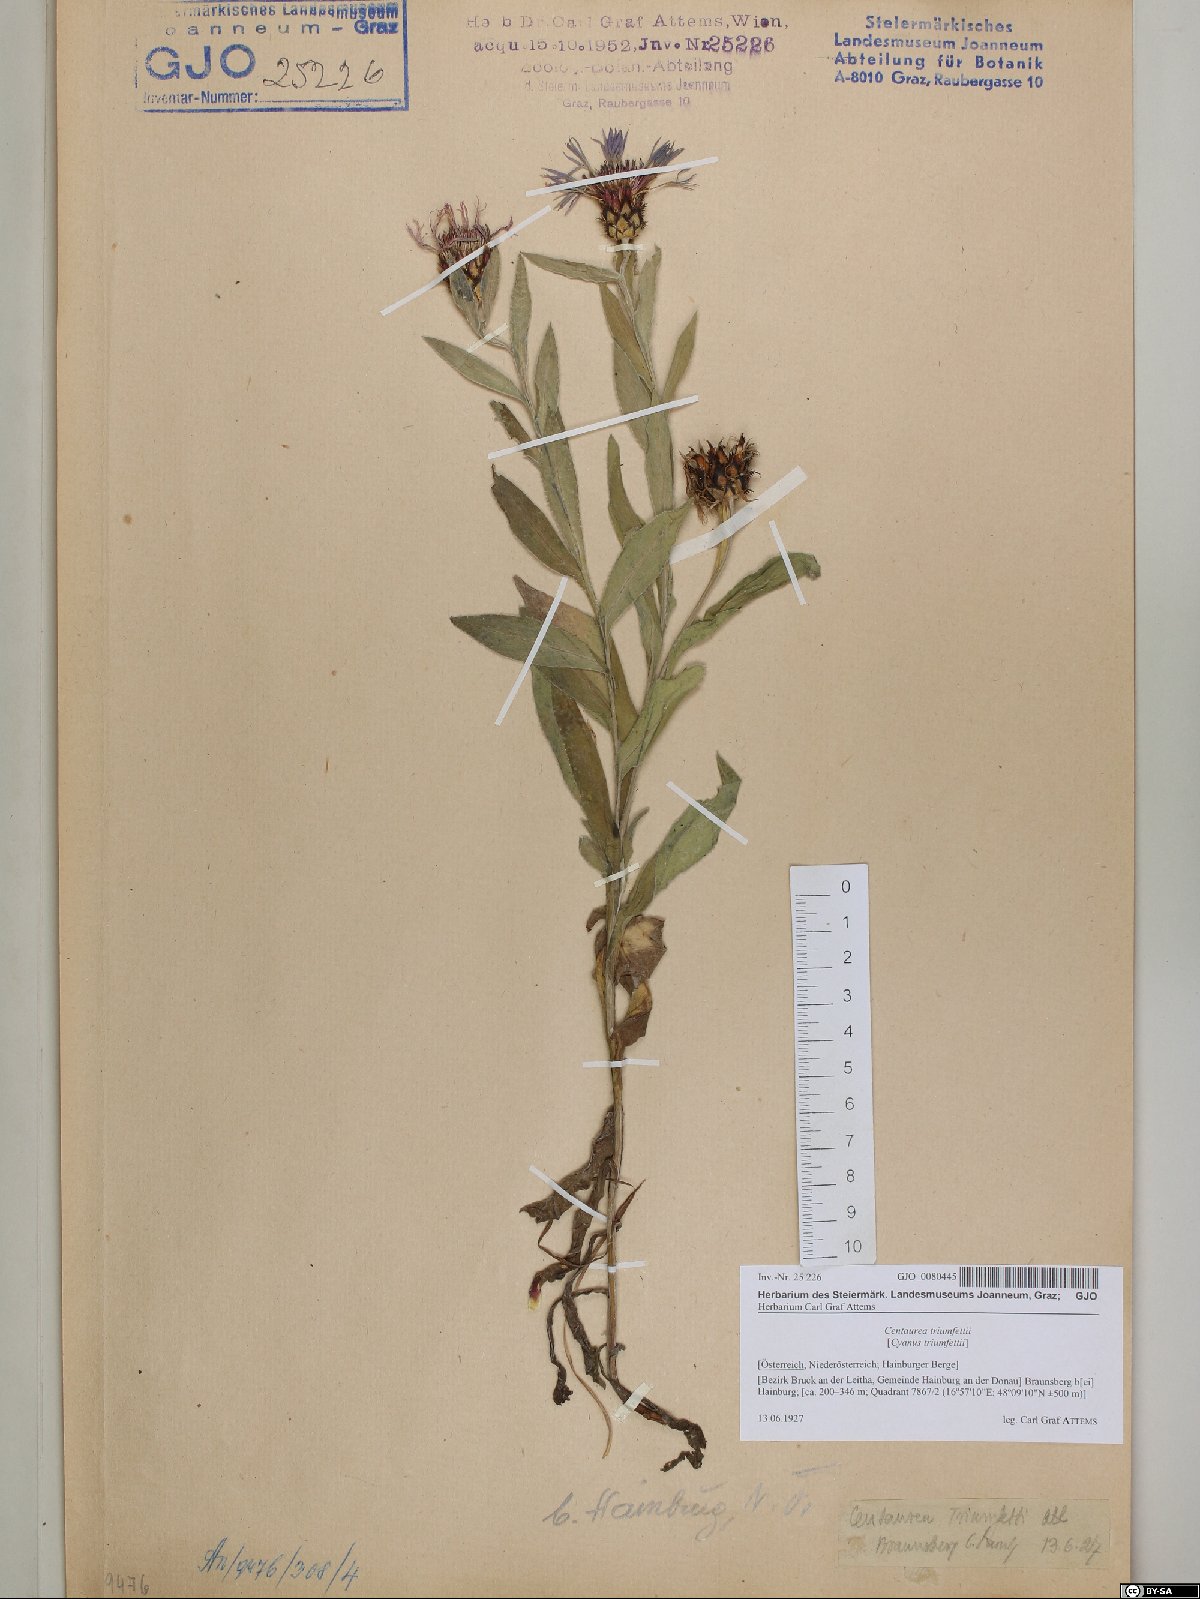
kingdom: Plantae
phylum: Tracheophyta
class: Magnoliopsida
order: Asterales
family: Asteraceae
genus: Centaurea
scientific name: Centaurea triumfettii
